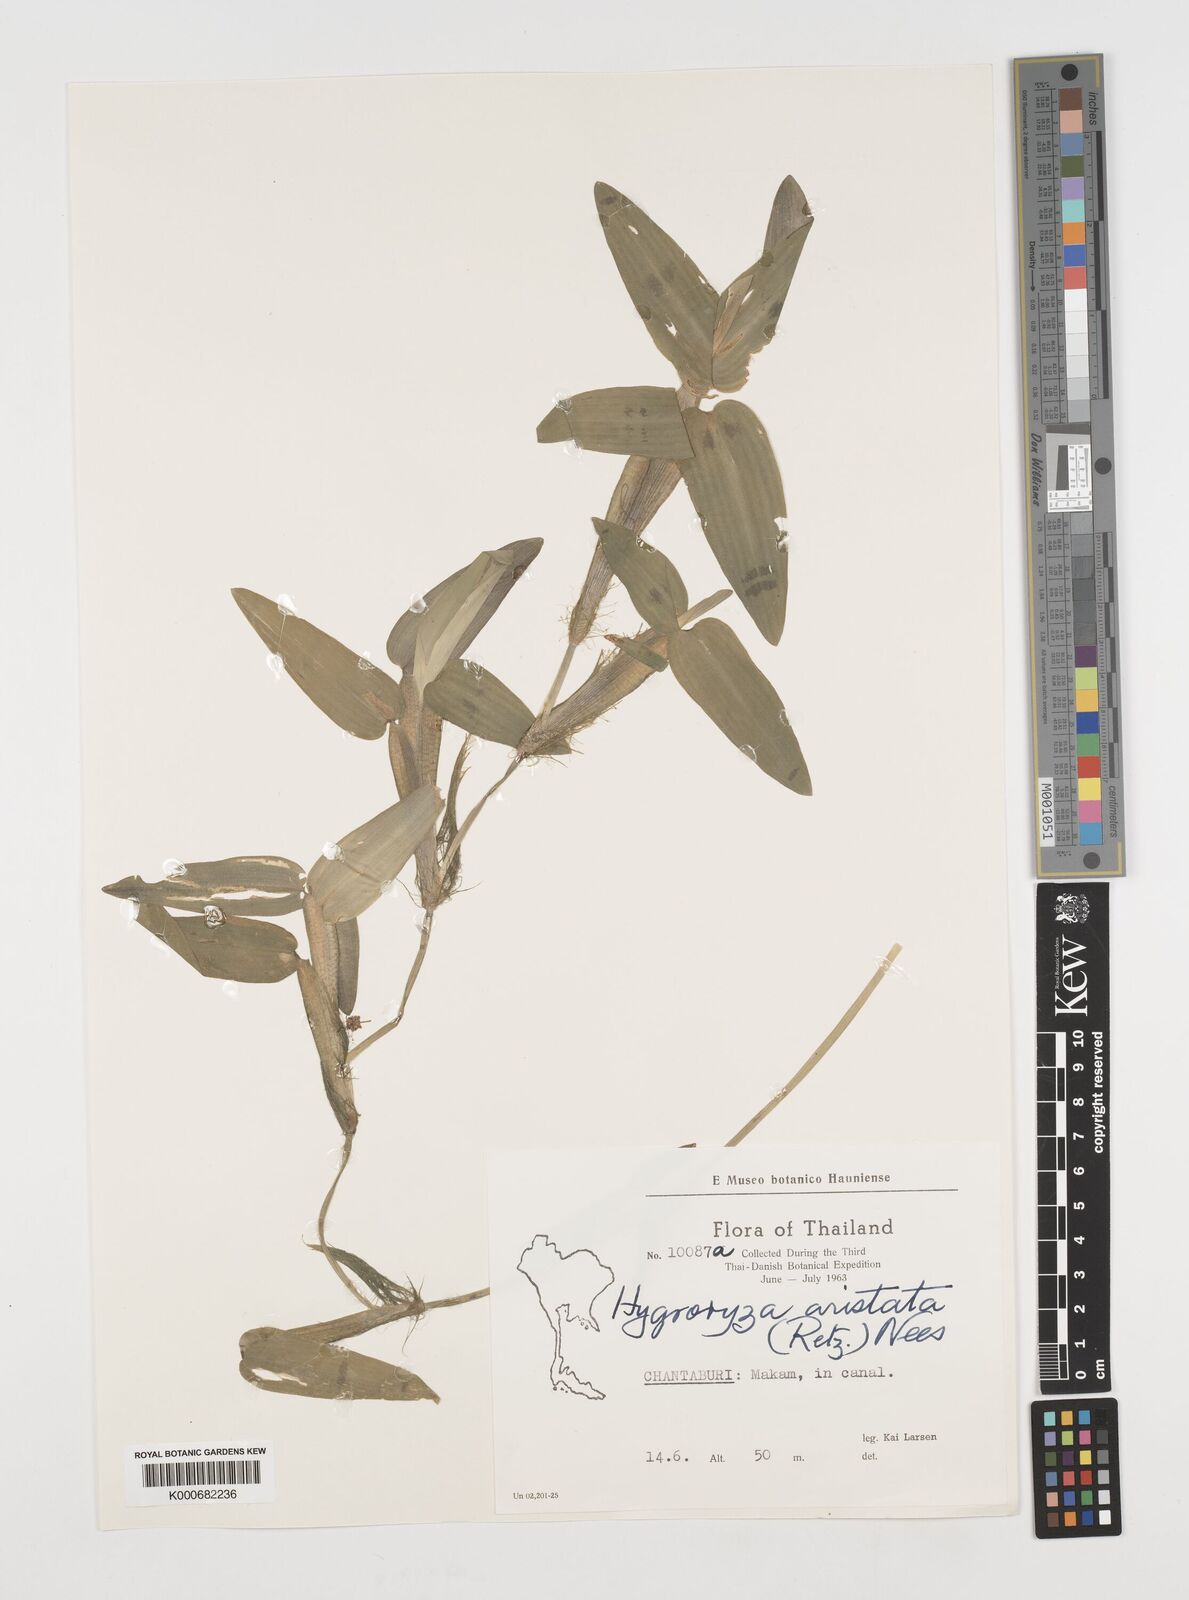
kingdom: Plantae
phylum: Tracheophyta
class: Liliopsida
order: Poales
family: Poaceae
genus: Hygroryza
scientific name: Hygroryza
